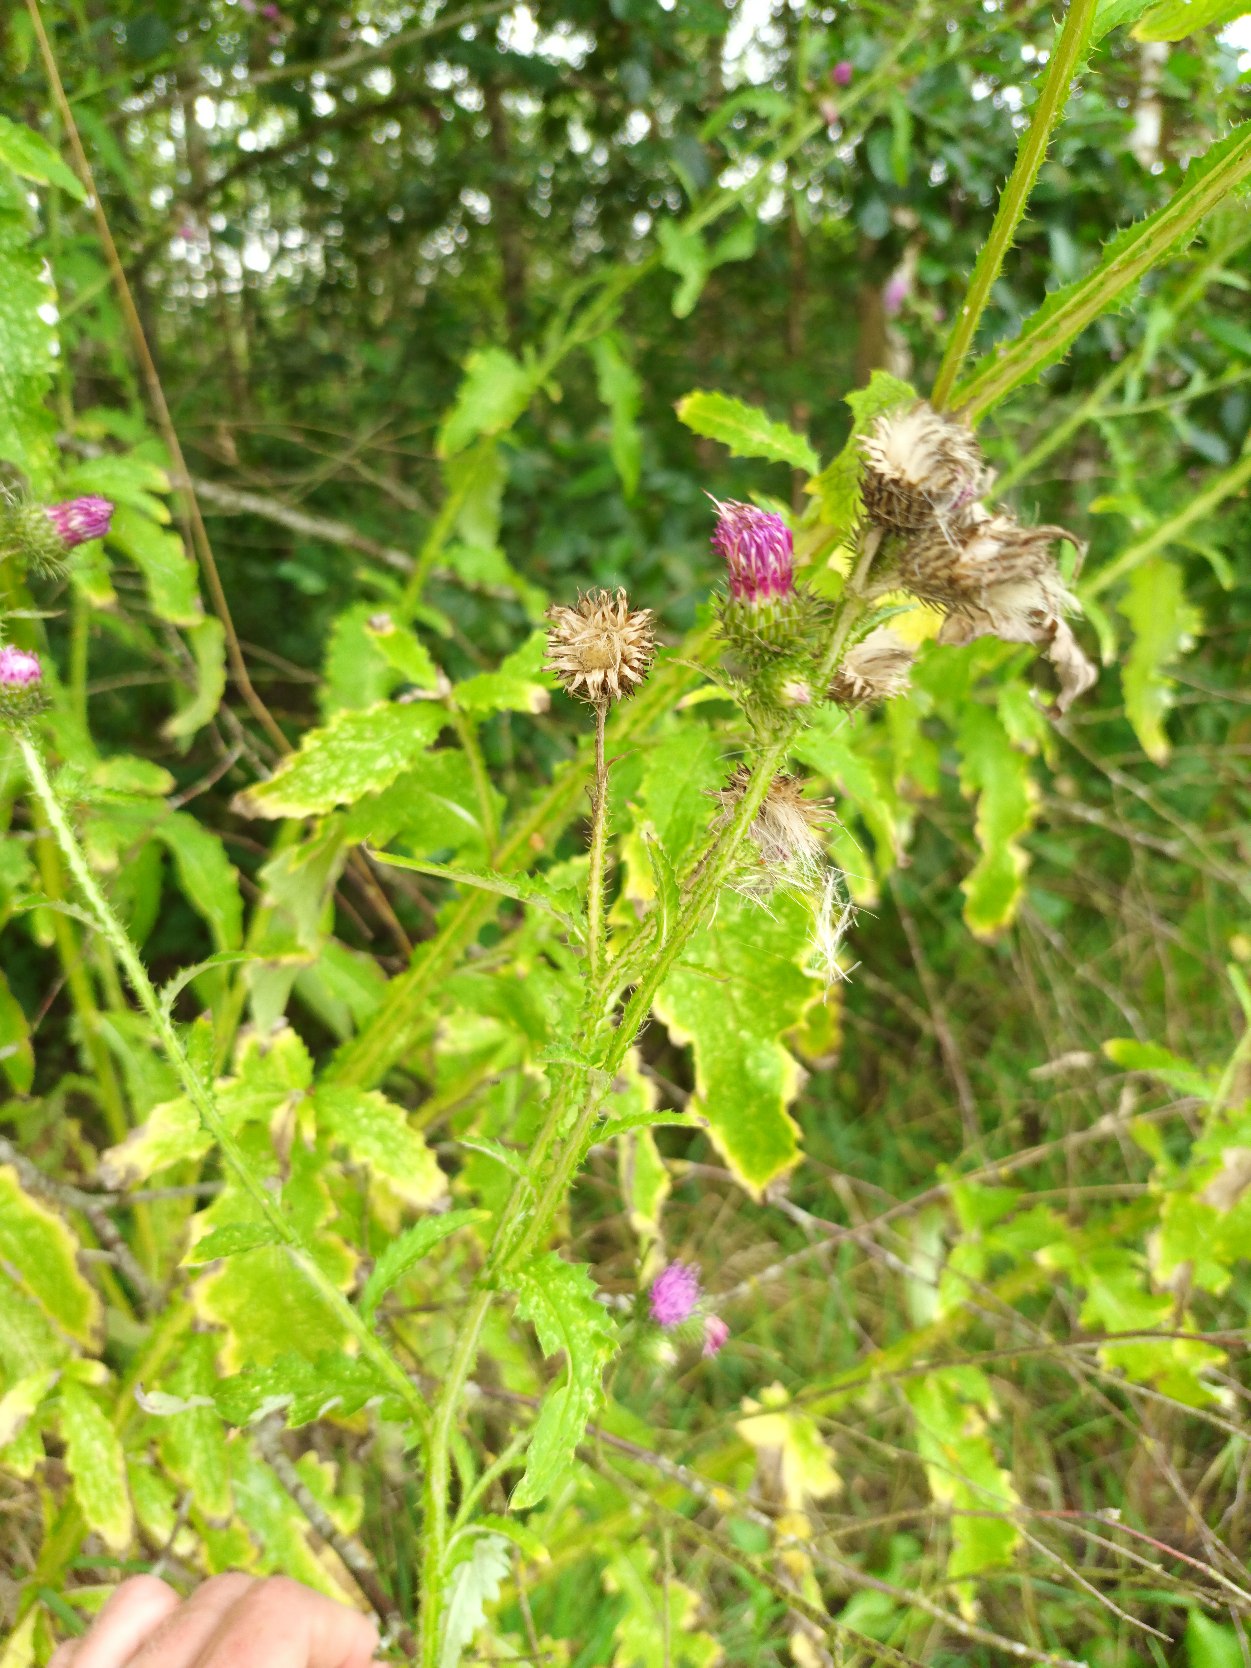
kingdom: Plantae
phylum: Tracheophyta
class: Magnoliopsida
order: Asterales
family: Asteraceae
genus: Carduus
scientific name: Carduus crispus
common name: Kruset tidsel
